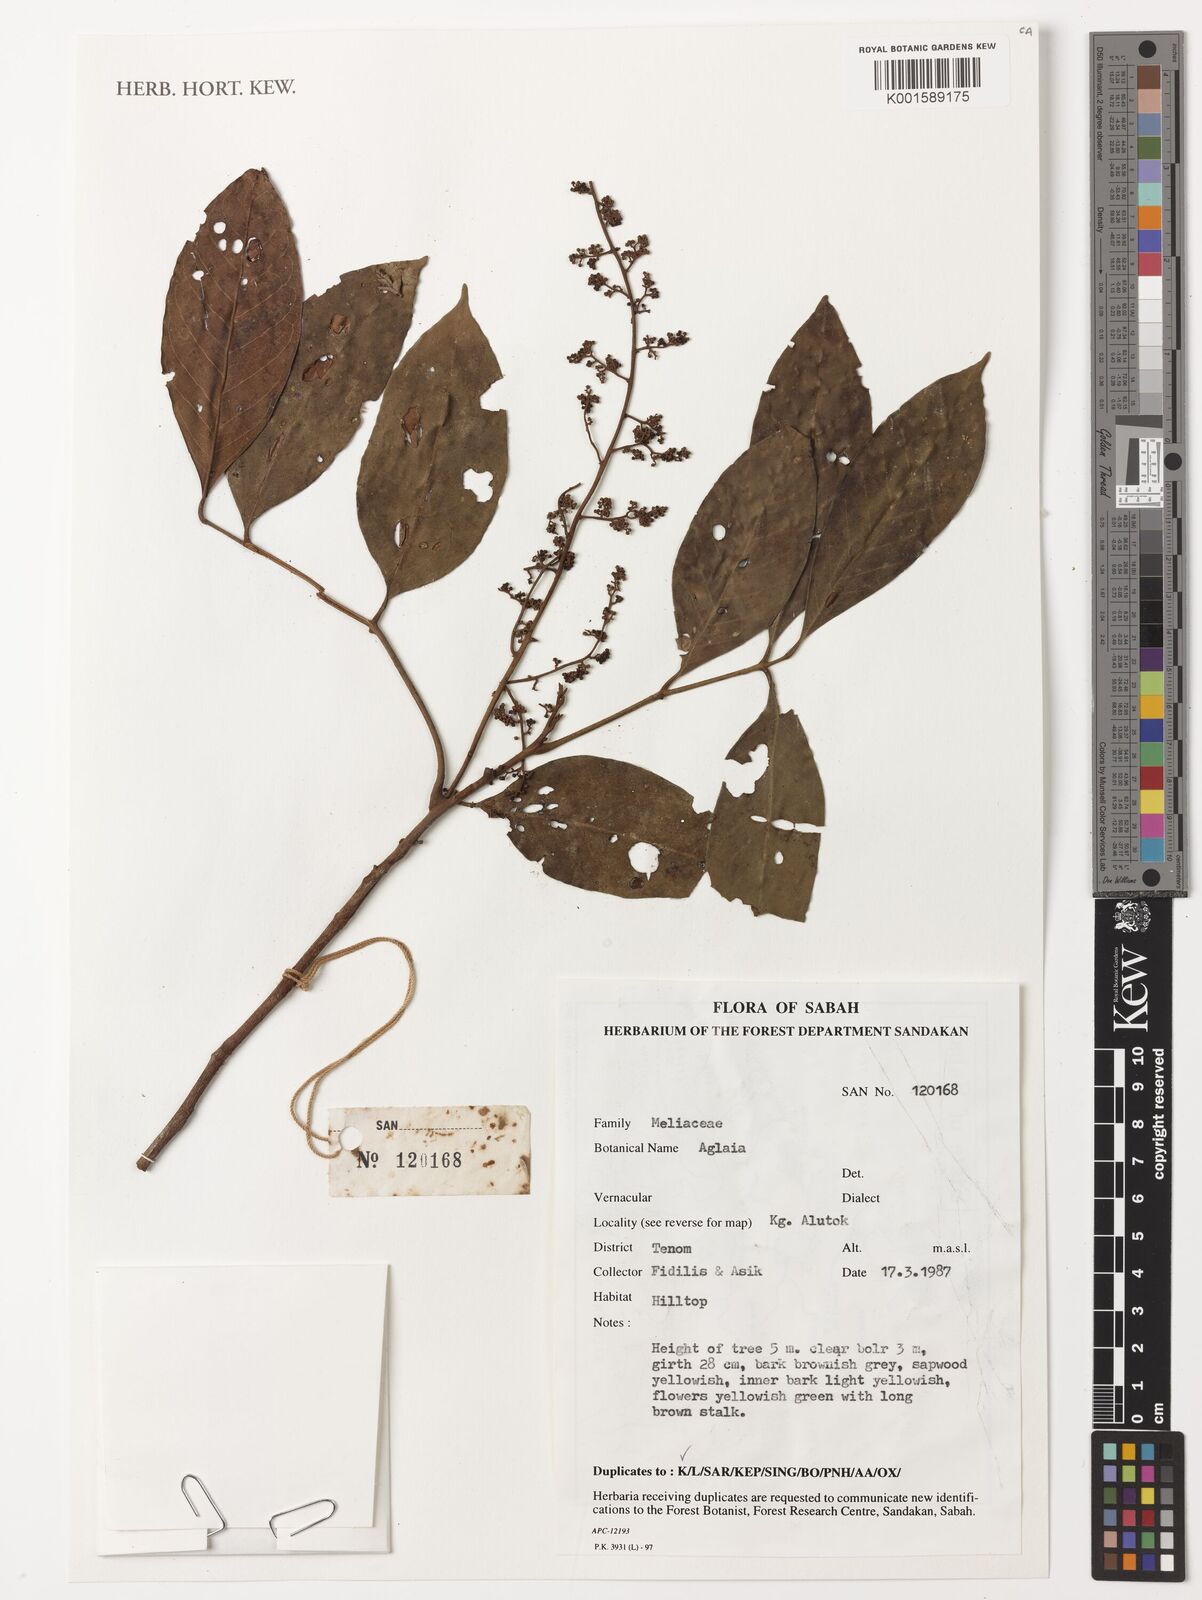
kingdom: Plantae
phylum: Tracheophyta
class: Magnoliopsida
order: Sapindales
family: Meliaceae
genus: Aglaia
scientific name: Aglaia
